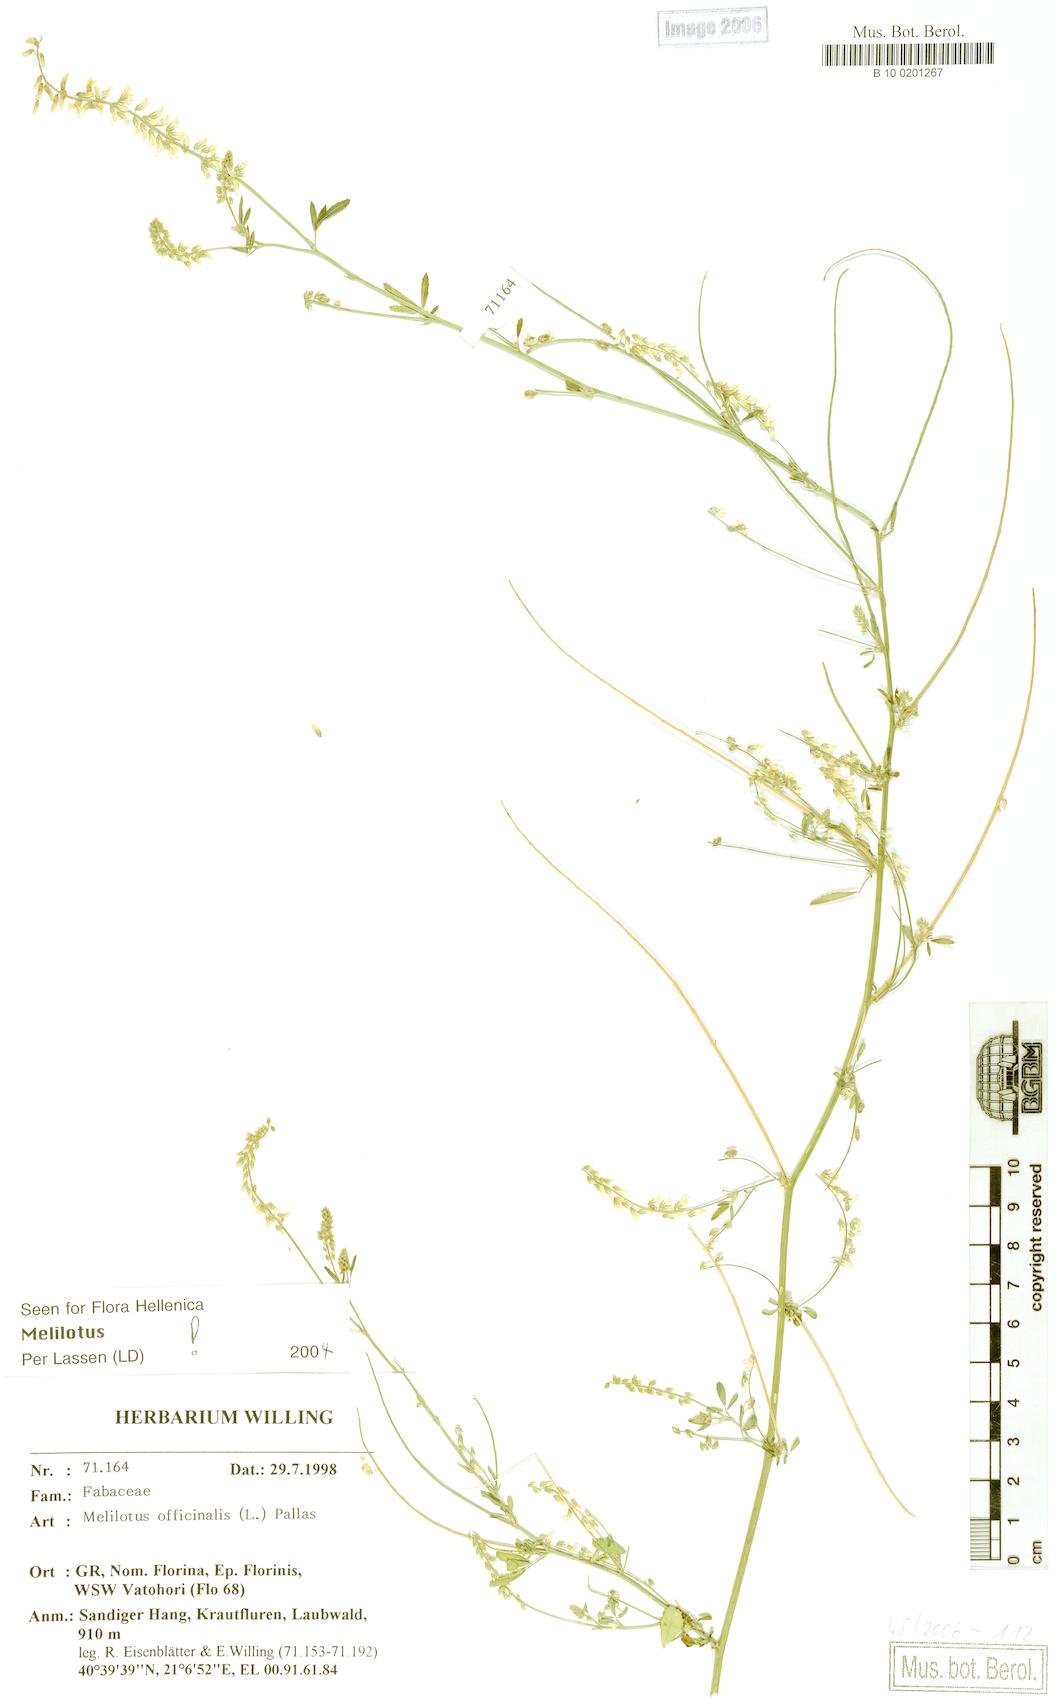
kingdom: Plantae
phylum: Tracheophyta
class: Magnoliopsida
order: Fabales
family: Fabaceae
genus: Melilotus
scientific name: Melilotus officinalis
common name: Sweetclover
